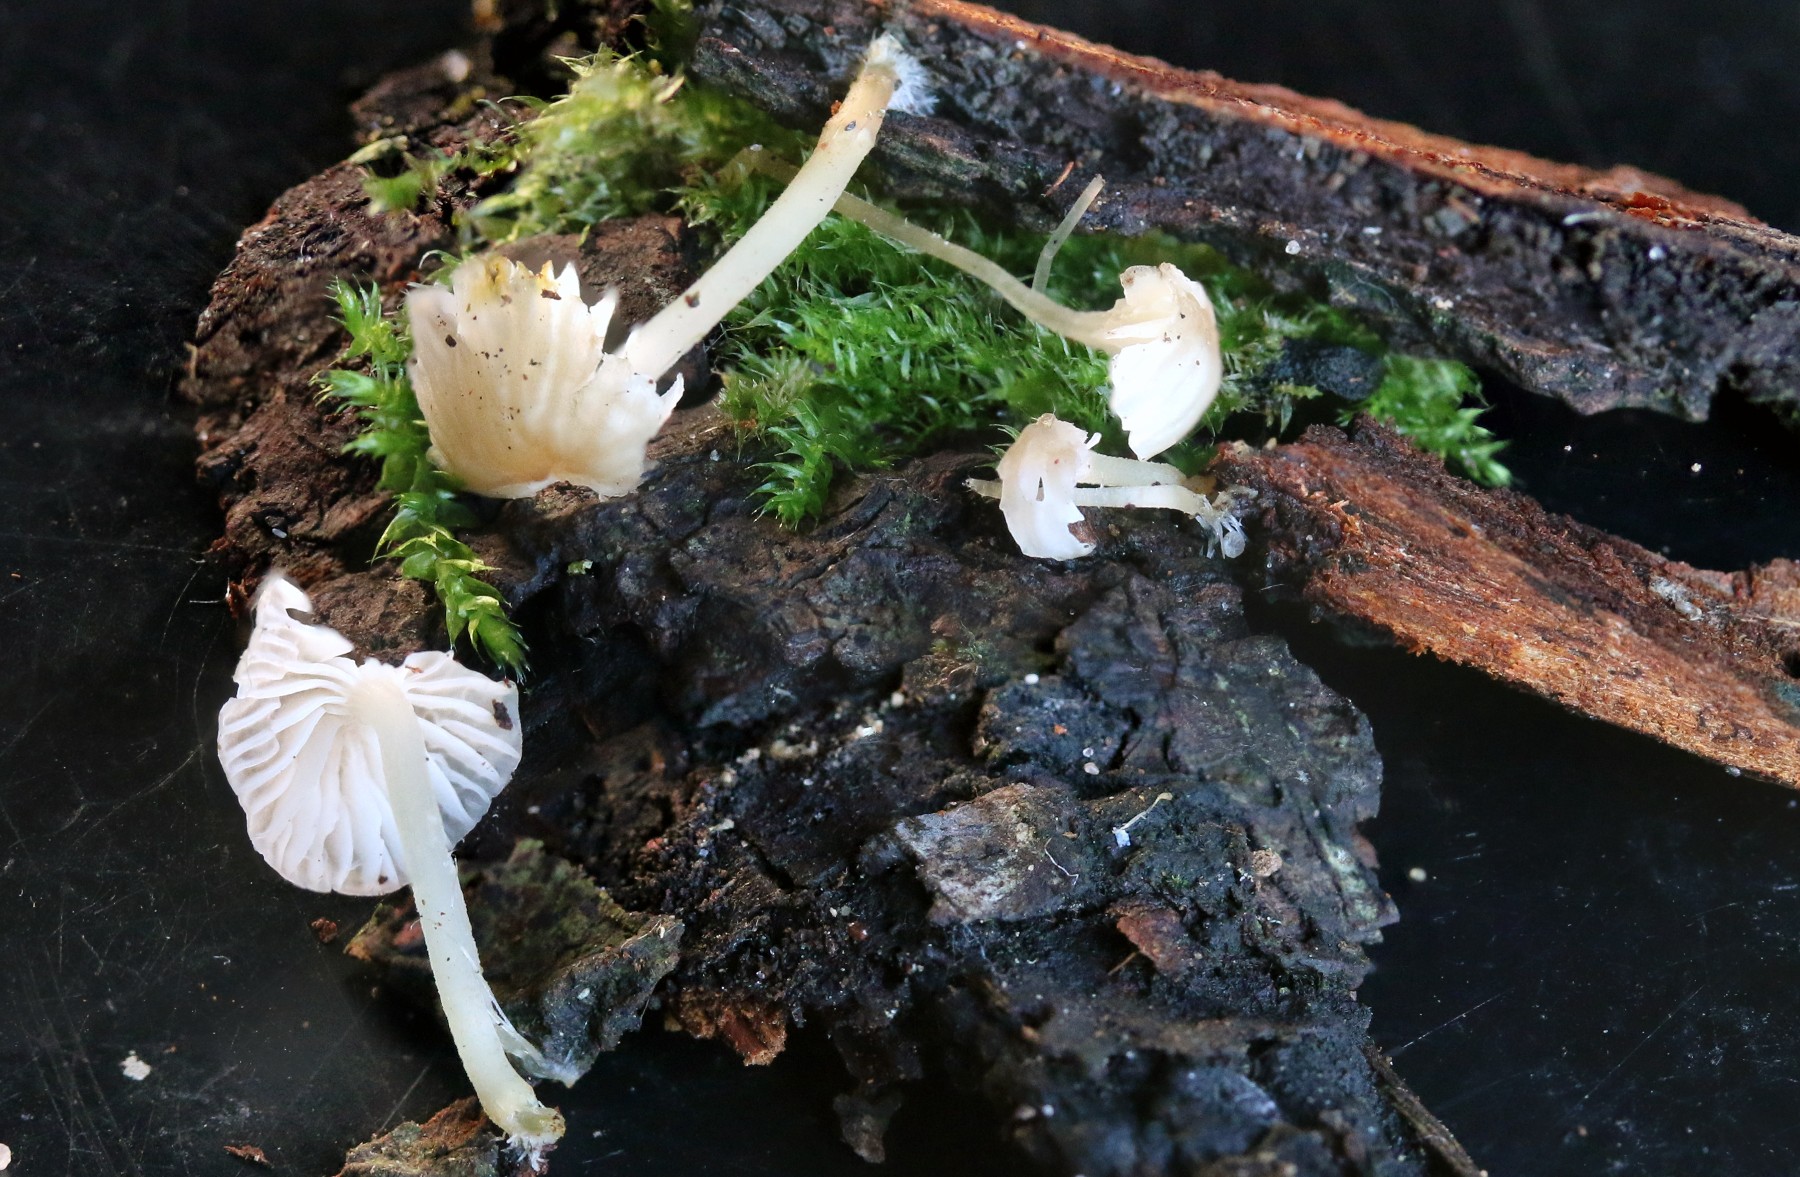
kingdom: Fungi
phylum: Basidiomycota
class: Agaricomycetes
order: Agaricales
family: Porotheleaceae
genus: Phloeomana
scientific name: Phloeomana speirea
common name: kvist-huesvamp
